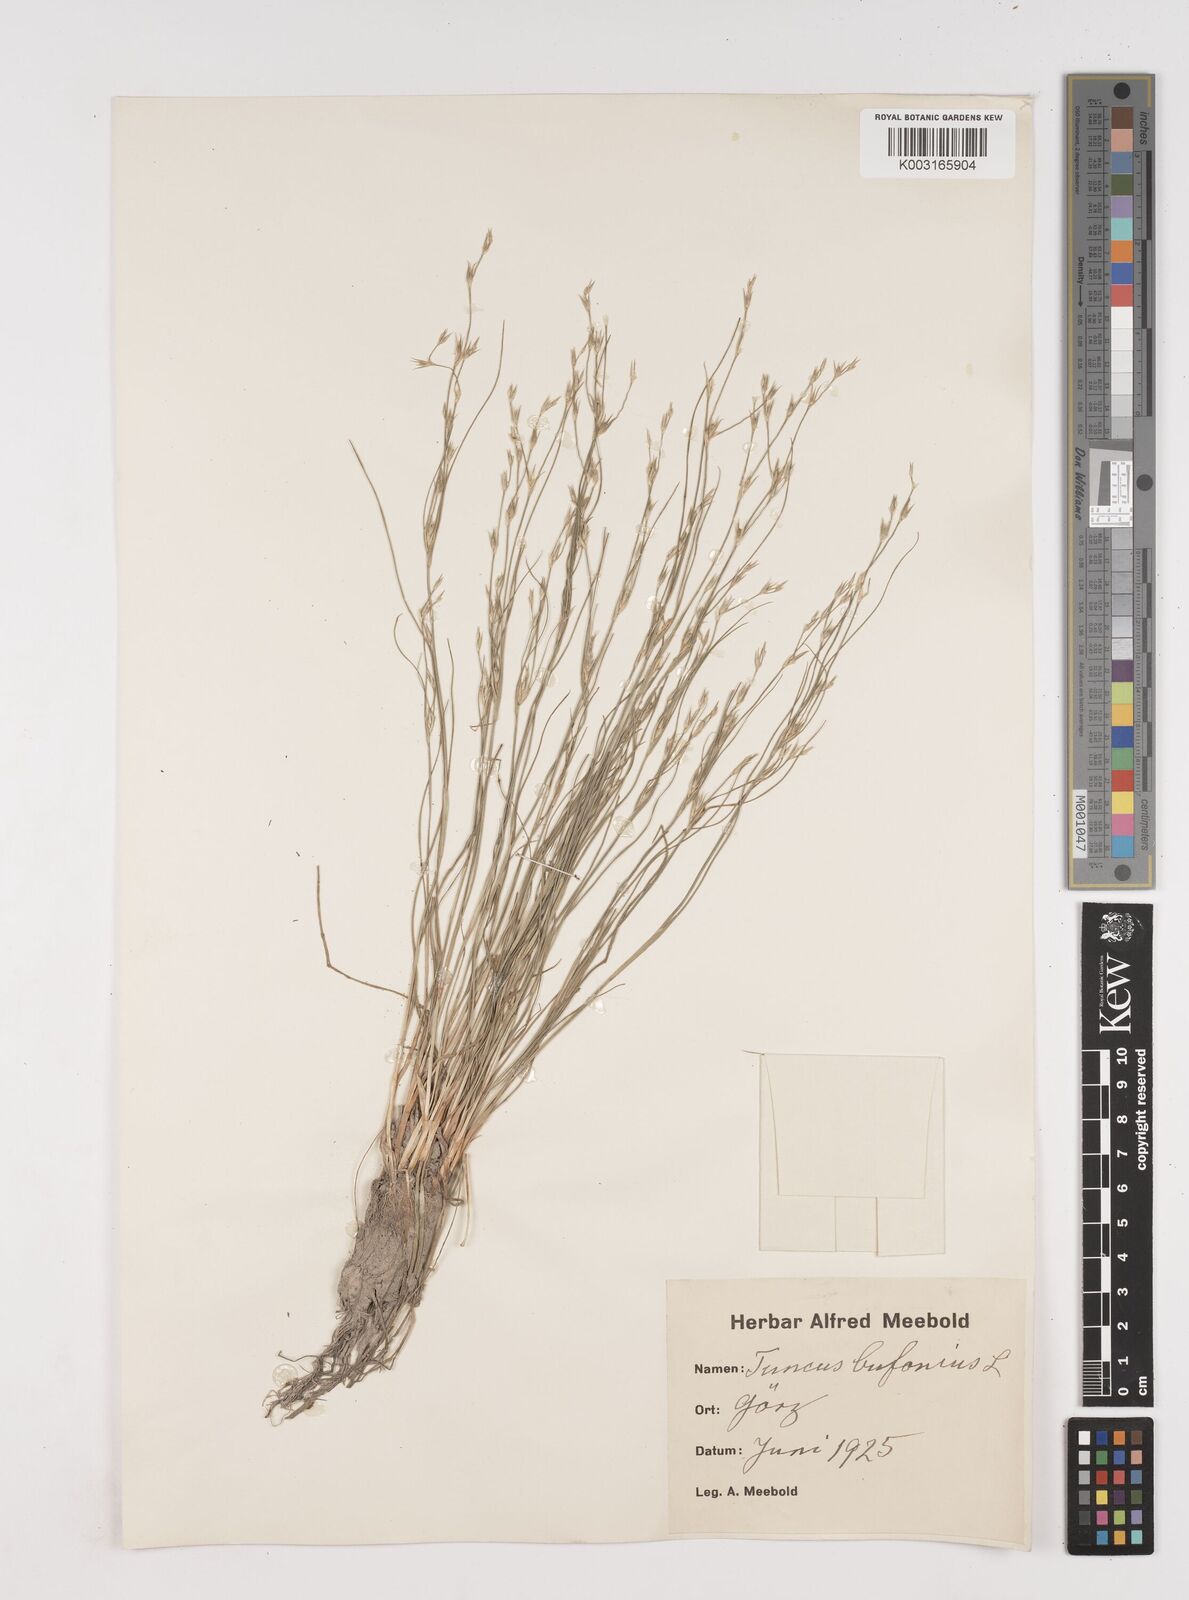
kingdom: Plantae
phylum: Tracheophyta
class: Liliopsida
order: Poales
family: Juncaceae
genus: Juncus
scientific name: Juncus bufonius
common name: Toad rush
